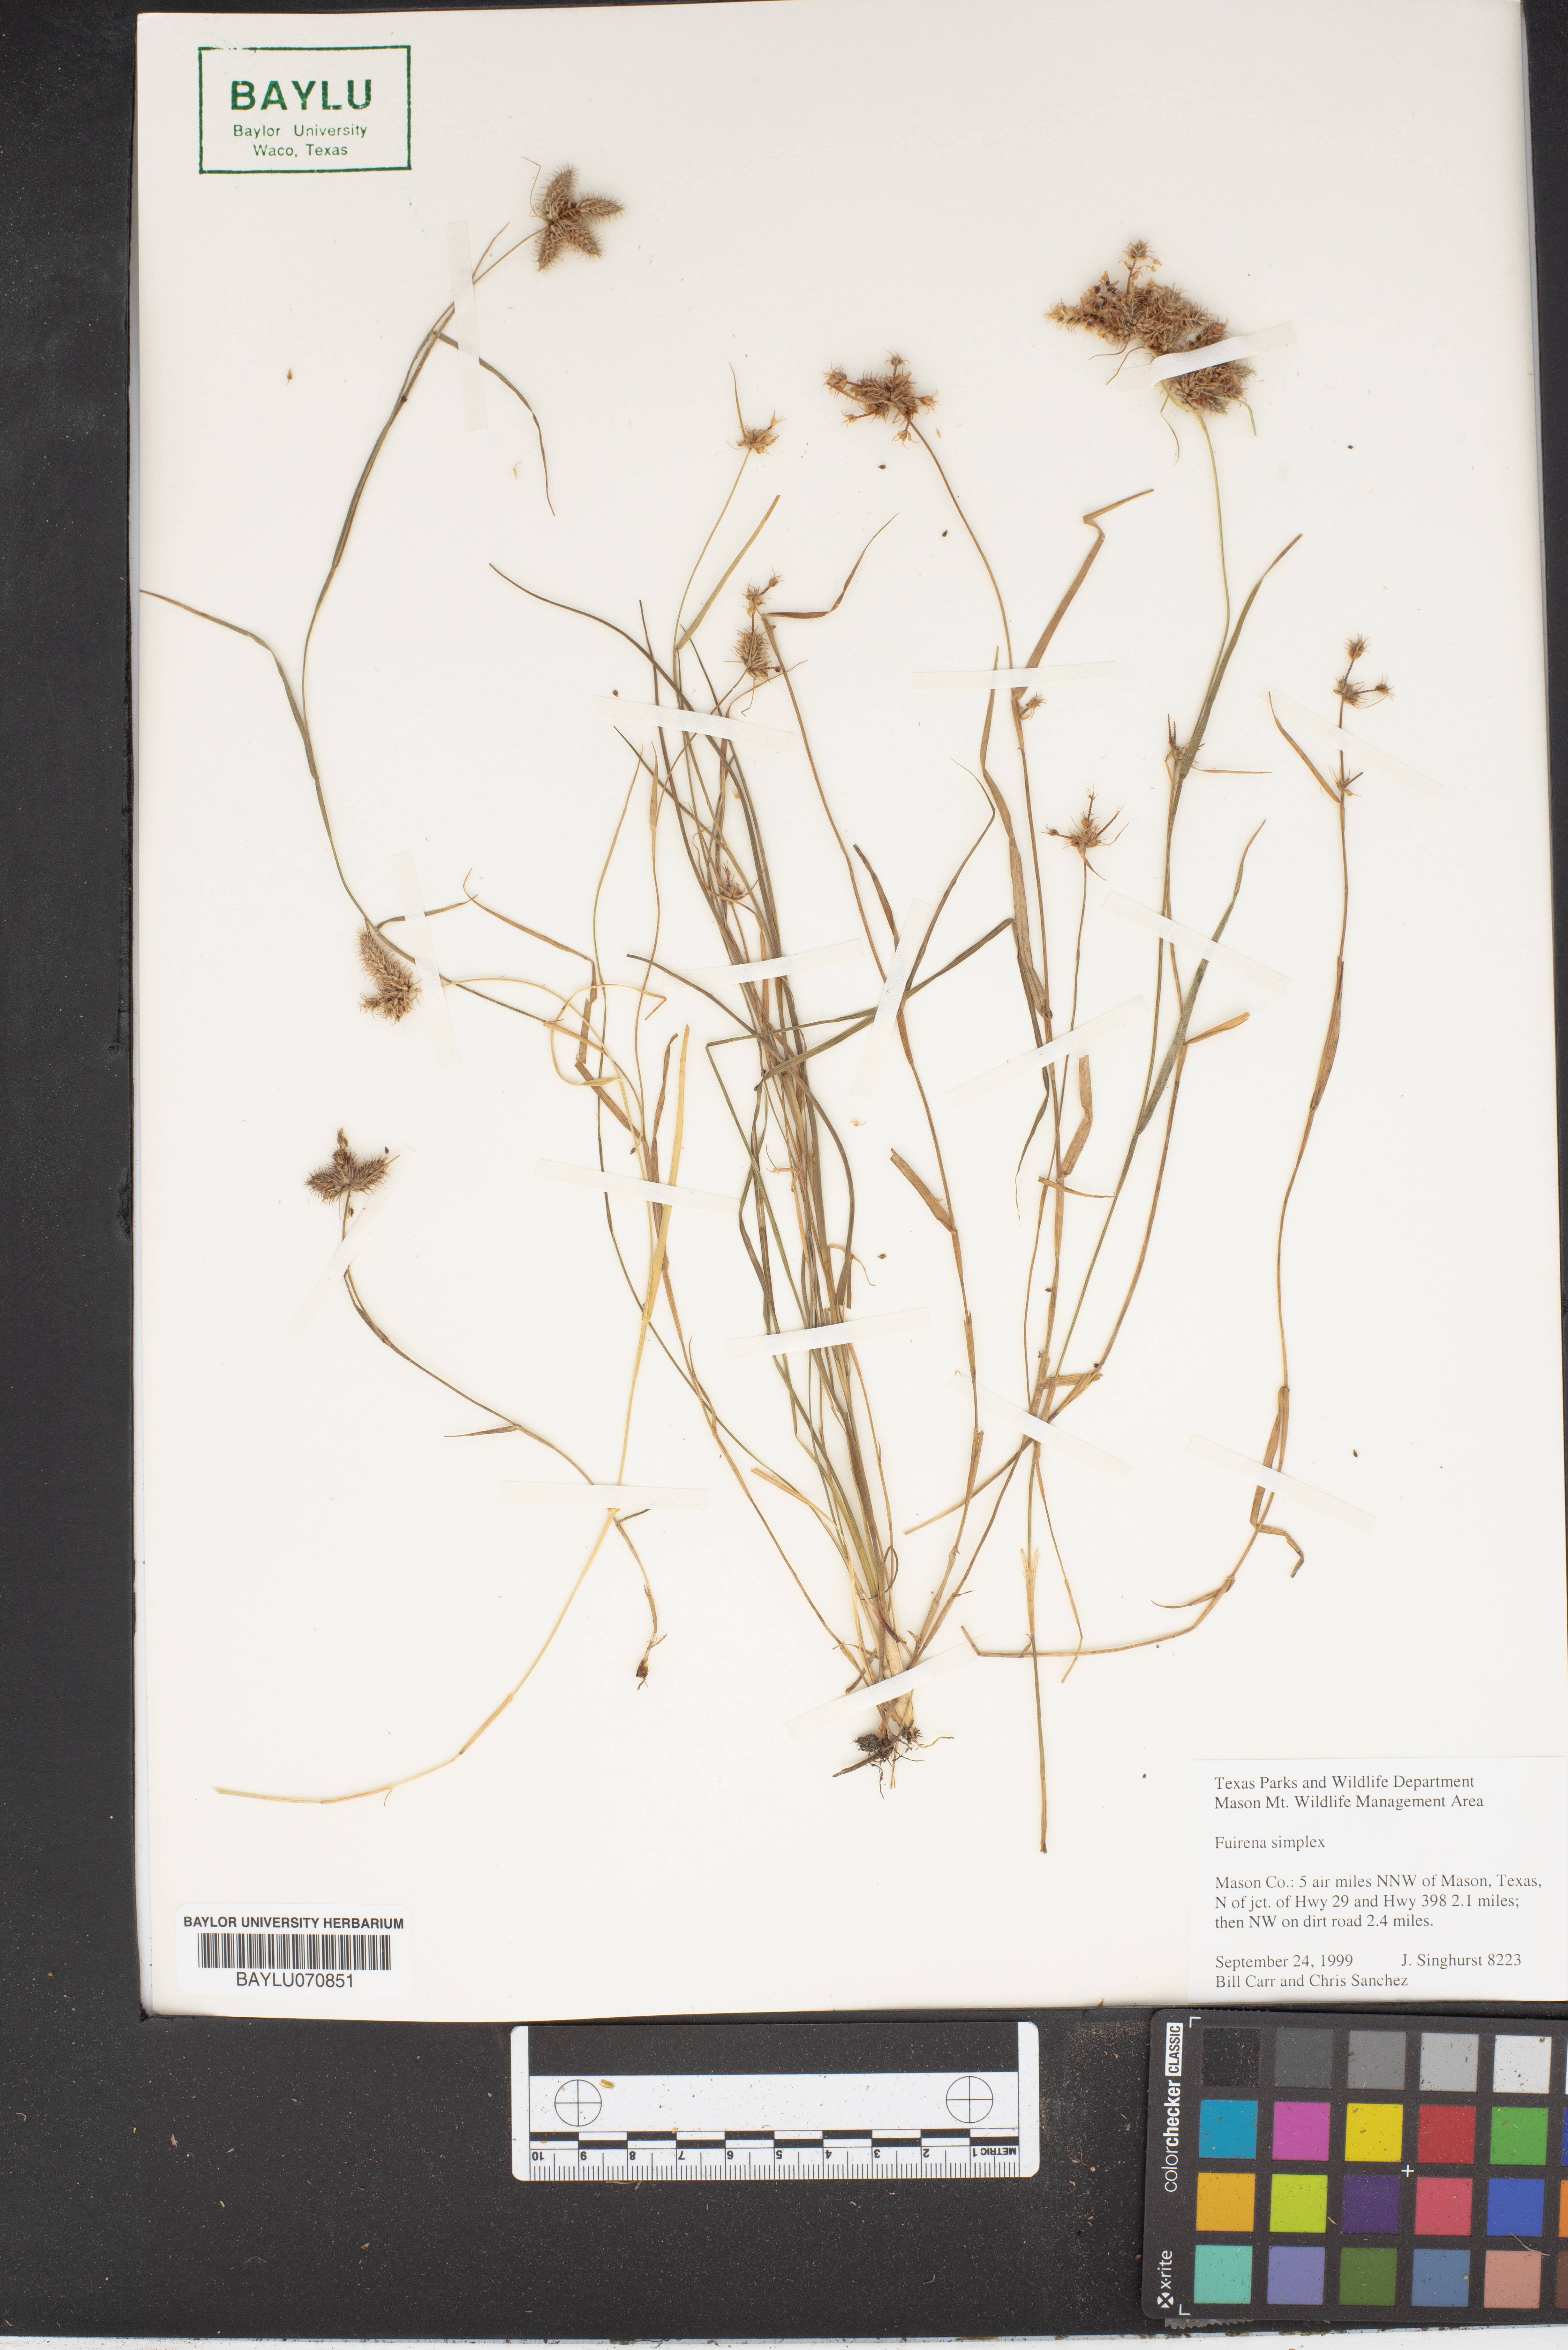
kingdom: Plantae
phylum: Tracheophyta
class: Liliopsida
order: Poales
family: Cyperaceae
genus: Fuirena
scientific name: Fuirena simplex
